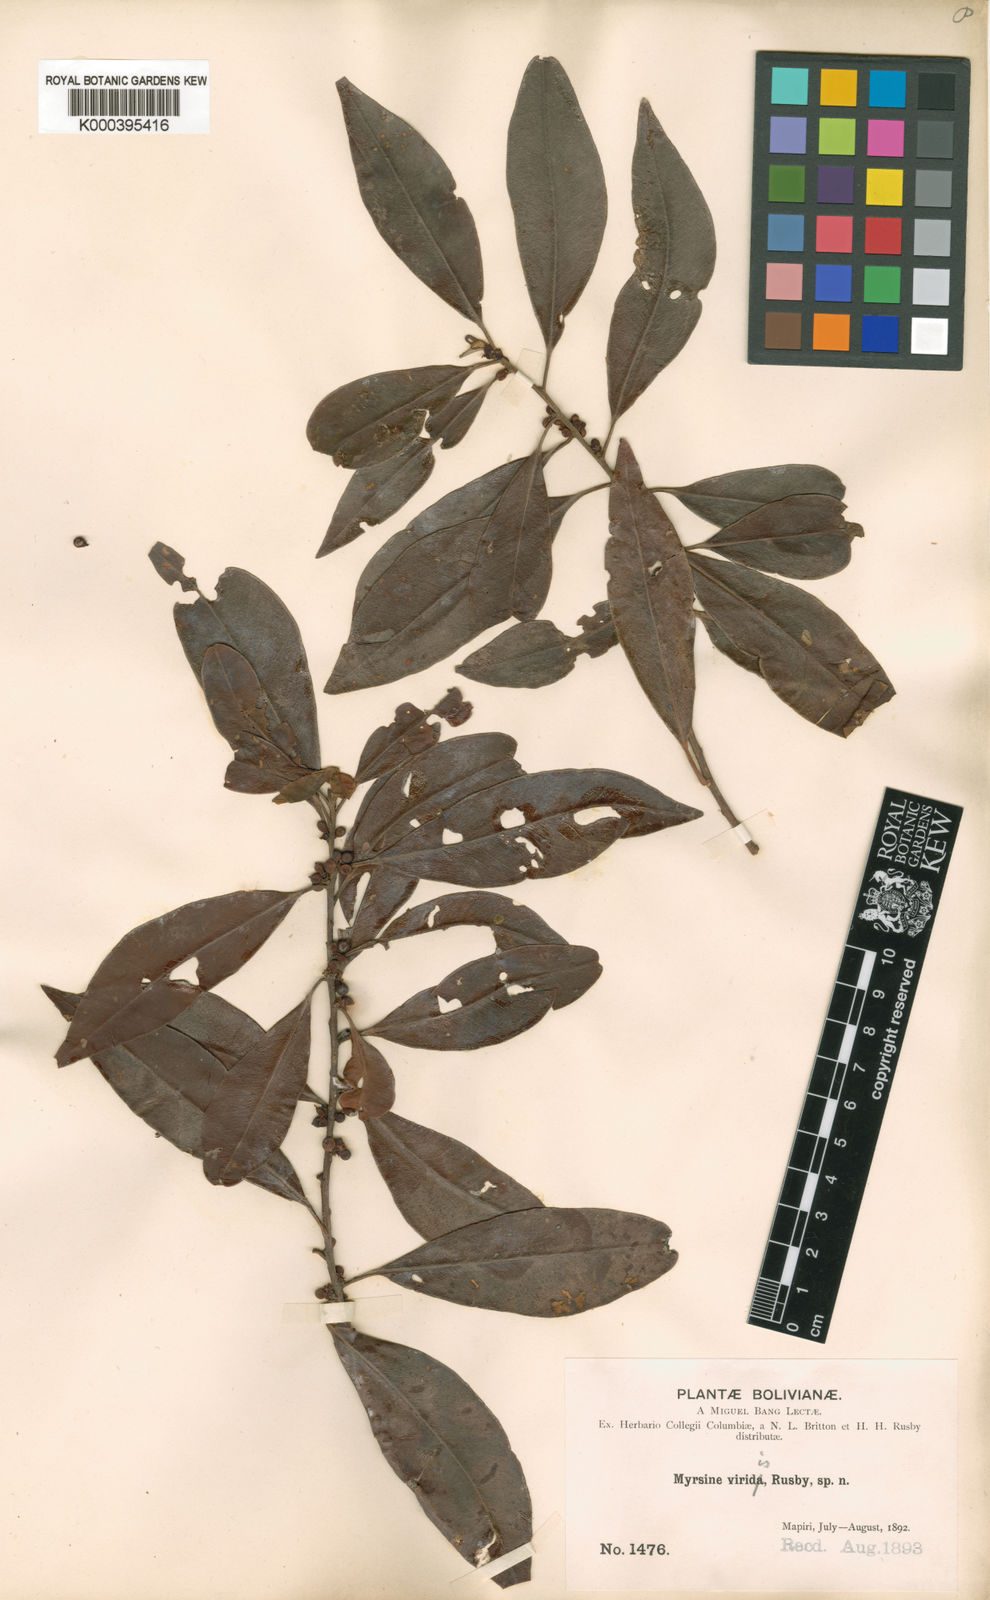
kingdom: Plantae
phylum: Tracheophyta
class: Magnoliopsida
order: Ericales
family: Primulaceae
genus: Myrsine
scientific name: Myrsine coriacea
